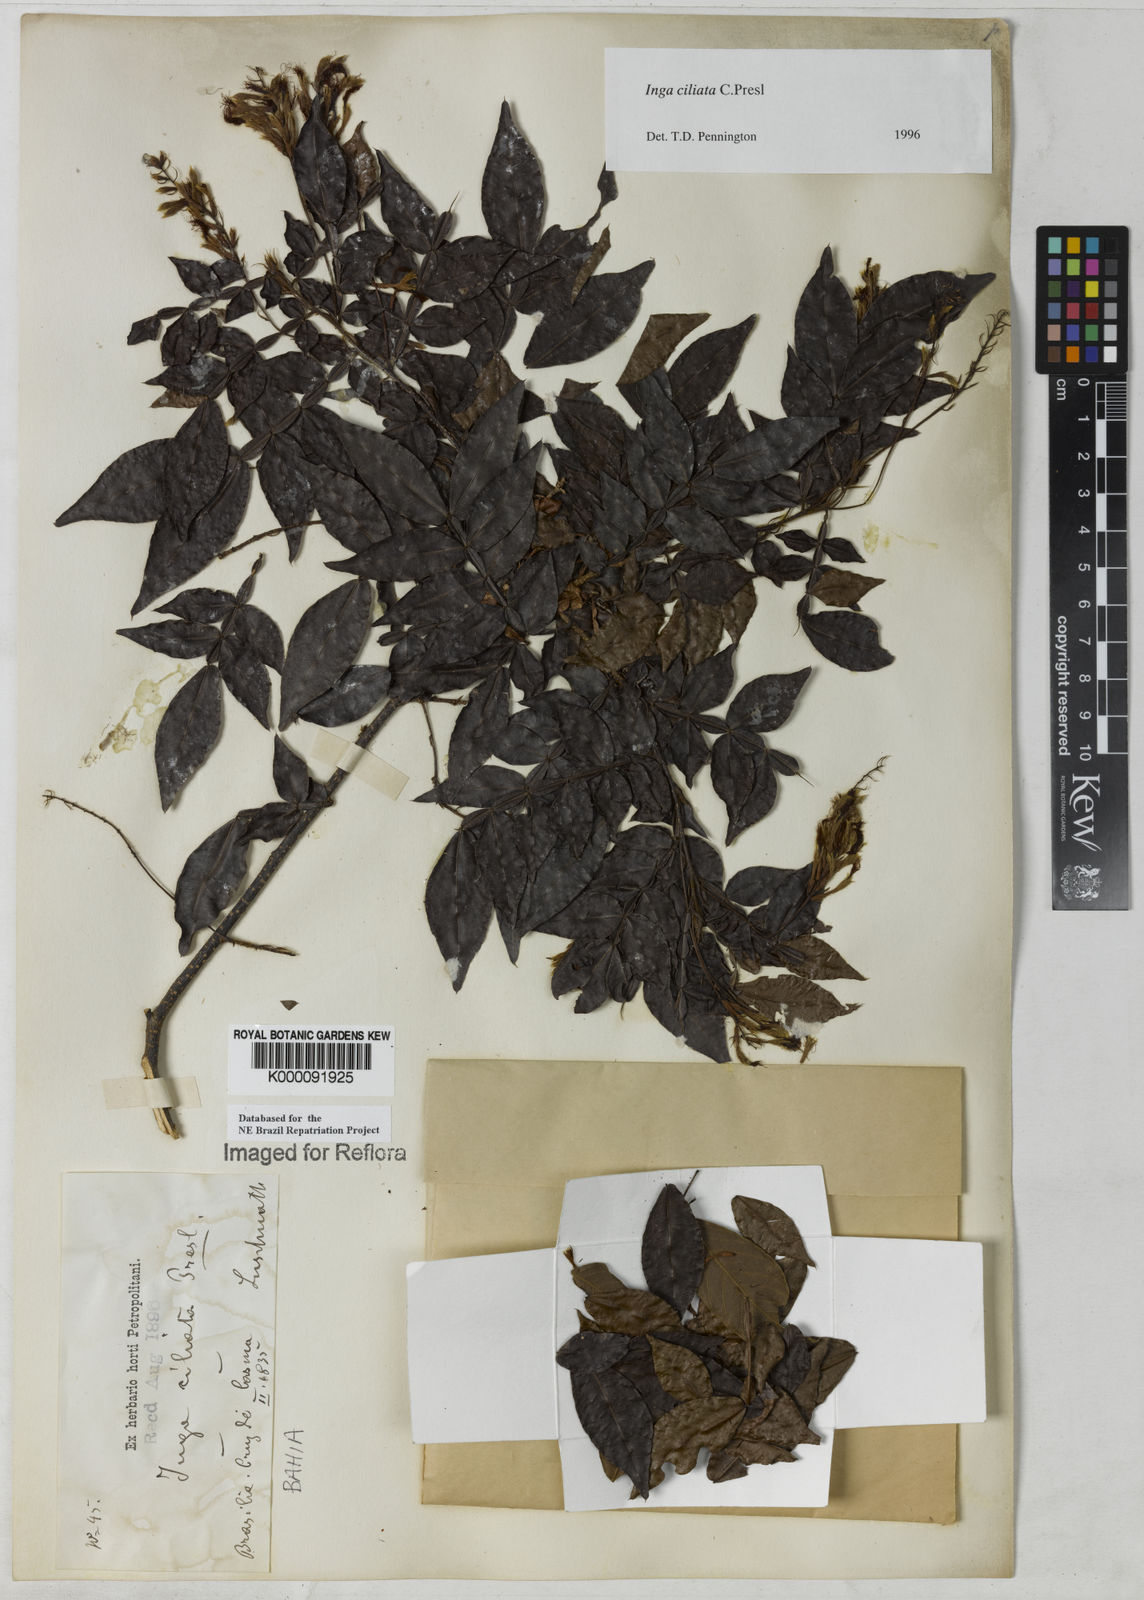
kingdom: Plantae
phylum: Tracheophyta
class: Magnoliopsida
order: Fabales
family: Fabaceae
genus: Inga
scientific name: Inga ciliata
